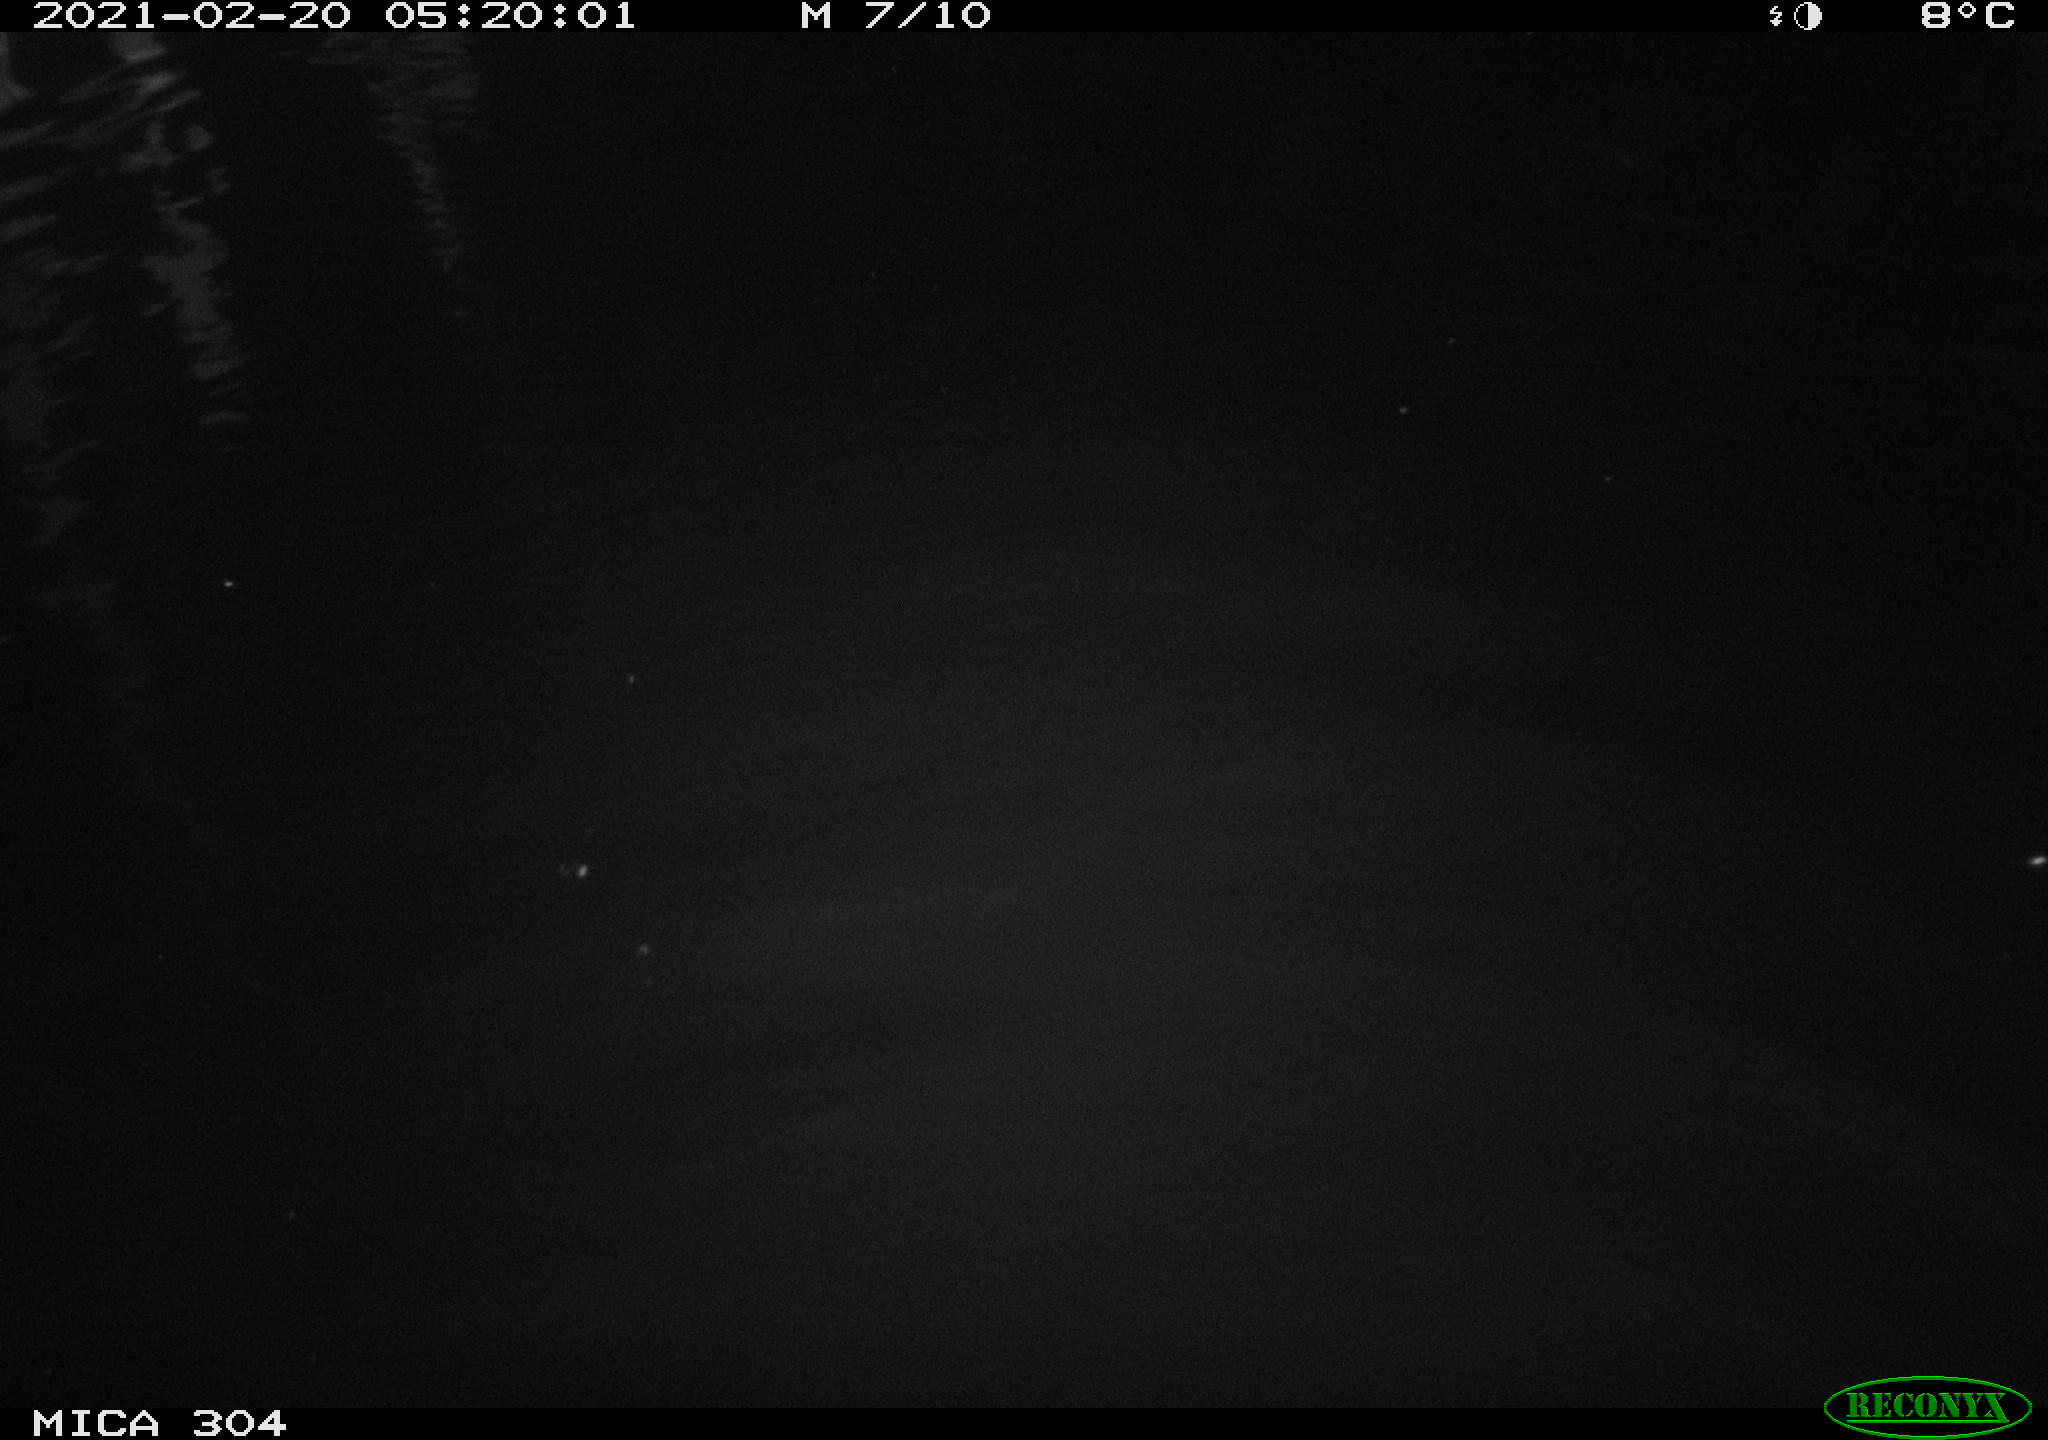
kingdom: Animalia
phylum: Chordata
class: Mammalia
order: Rodentia
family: Cricetidae
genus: Ondatra
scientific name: Ondatra zibethicus
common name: Muskrat
